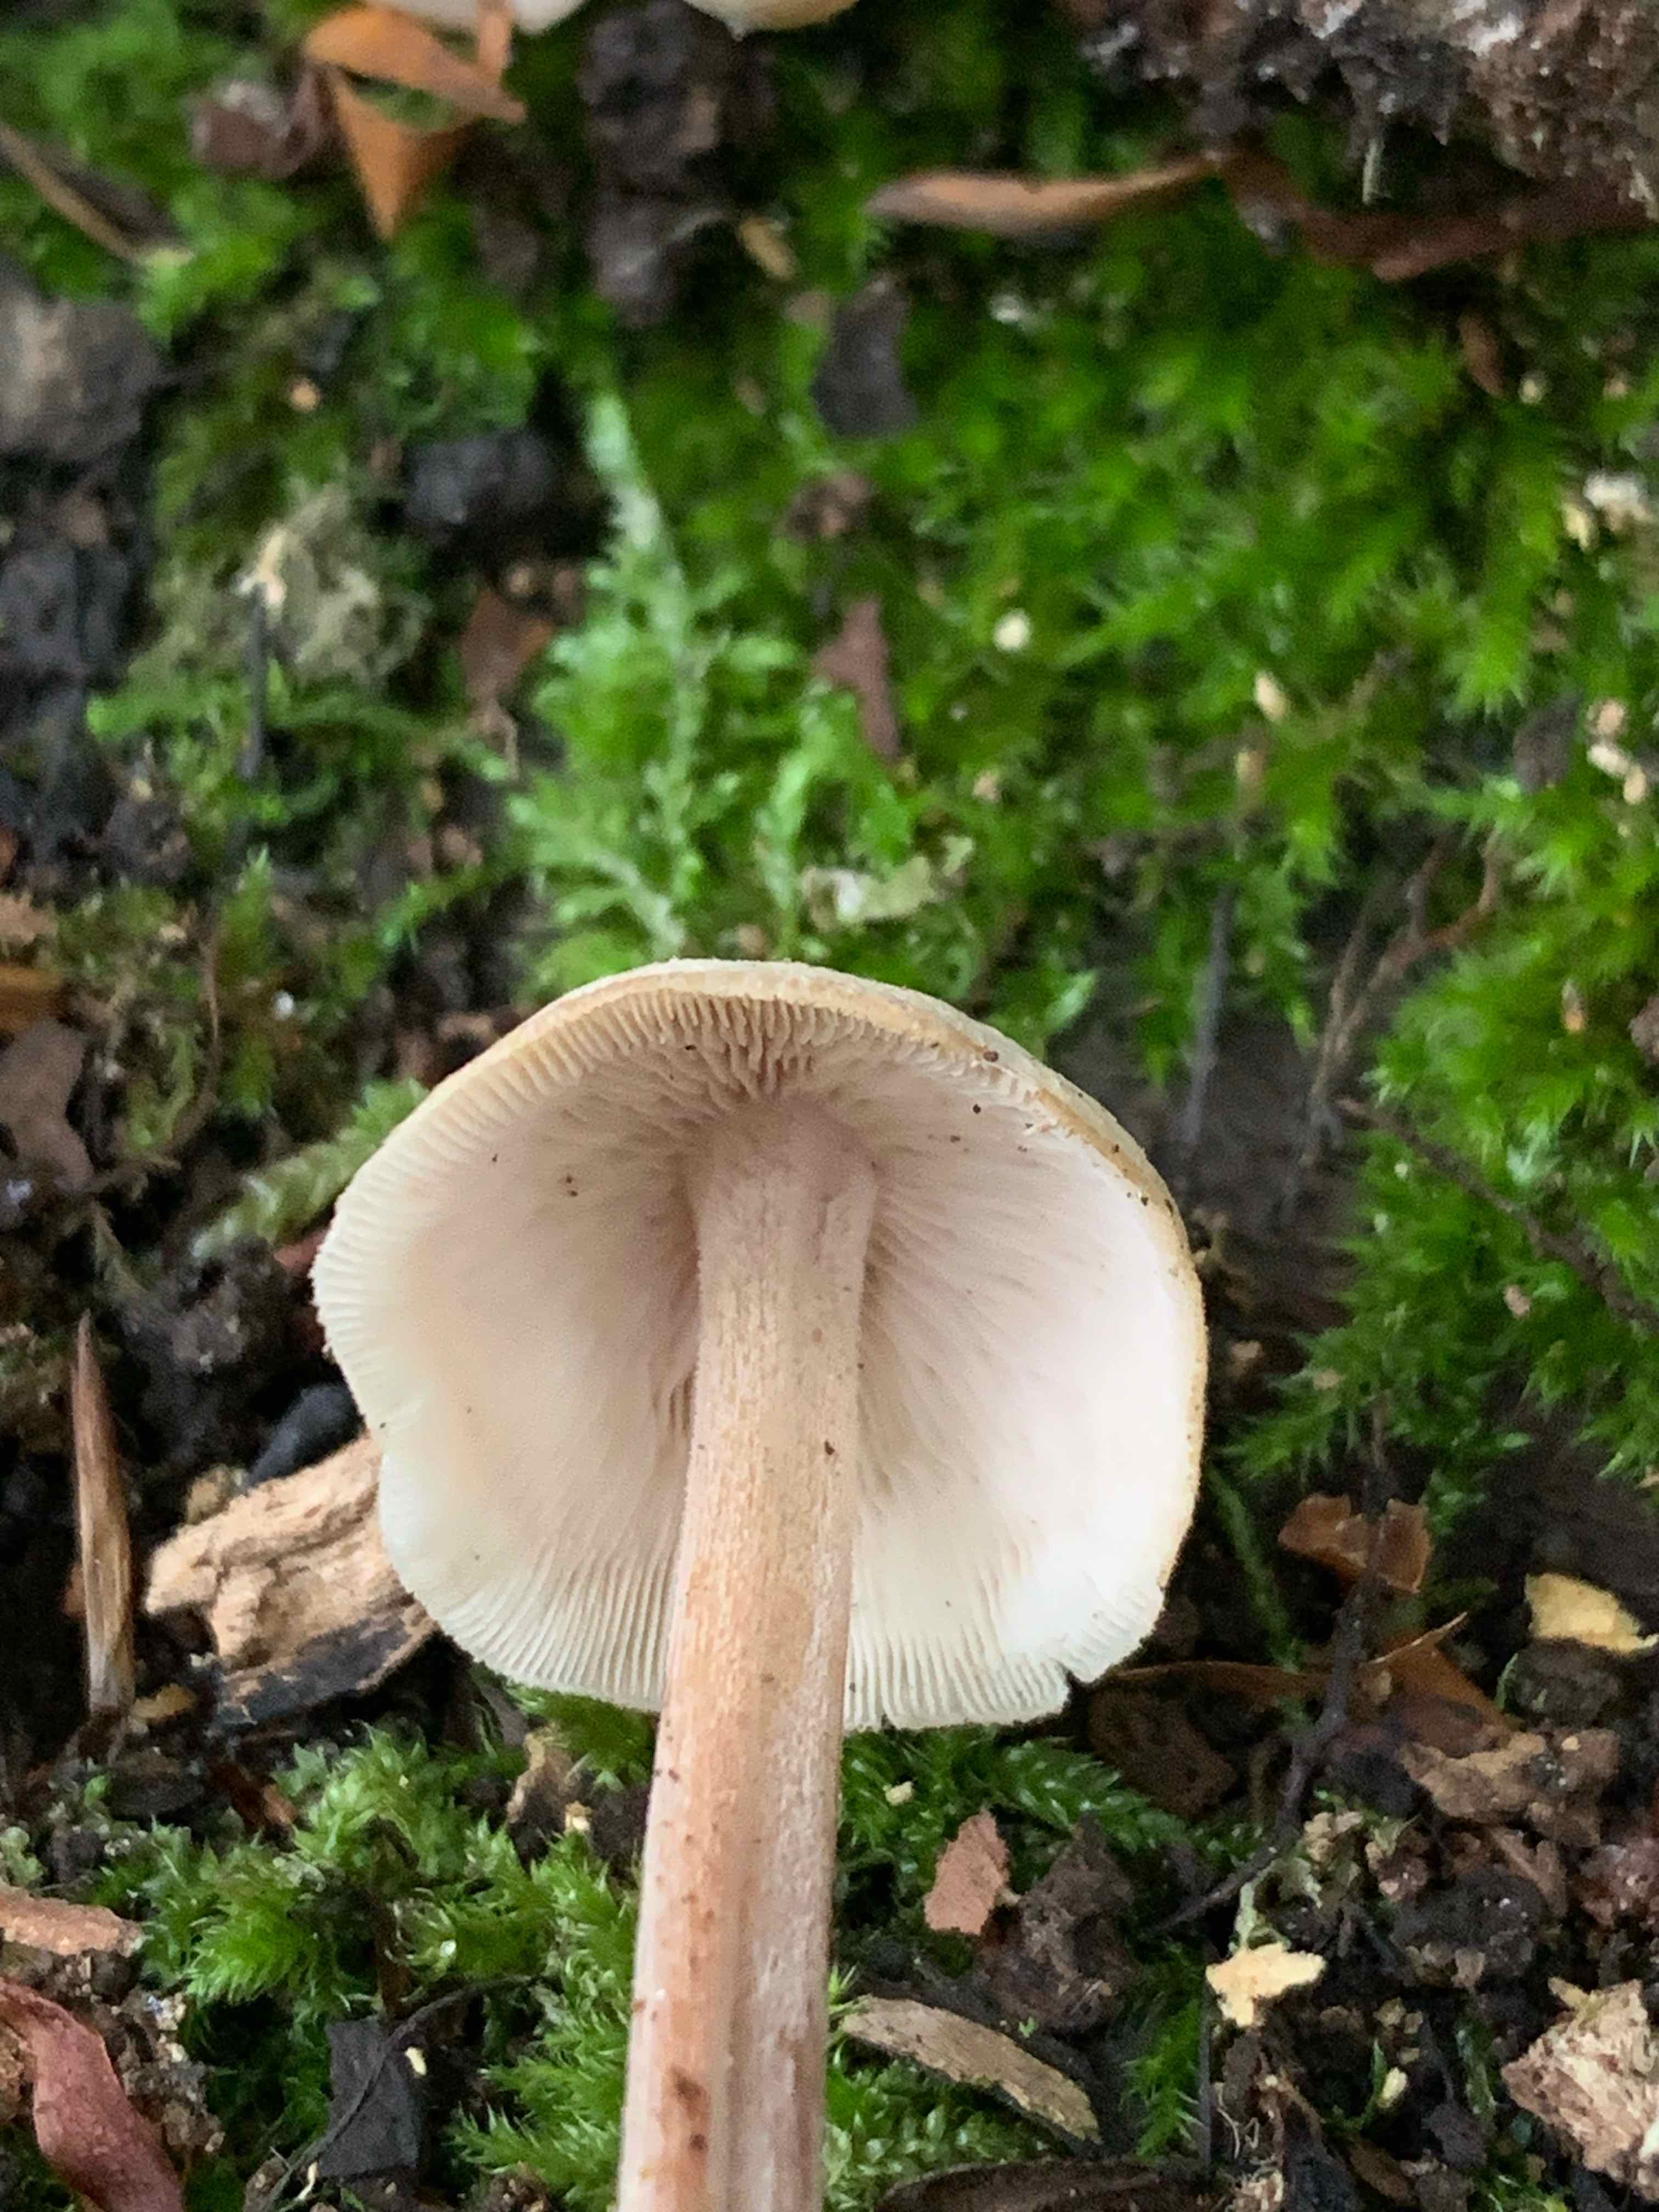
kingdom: Fungi
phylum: Basidiomycota
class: Agaricomycetes
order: Agaricales
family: Omphalotaceae
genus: Collybiopsis
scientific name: Collybiopsis confluens
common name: knippe-fladhat
